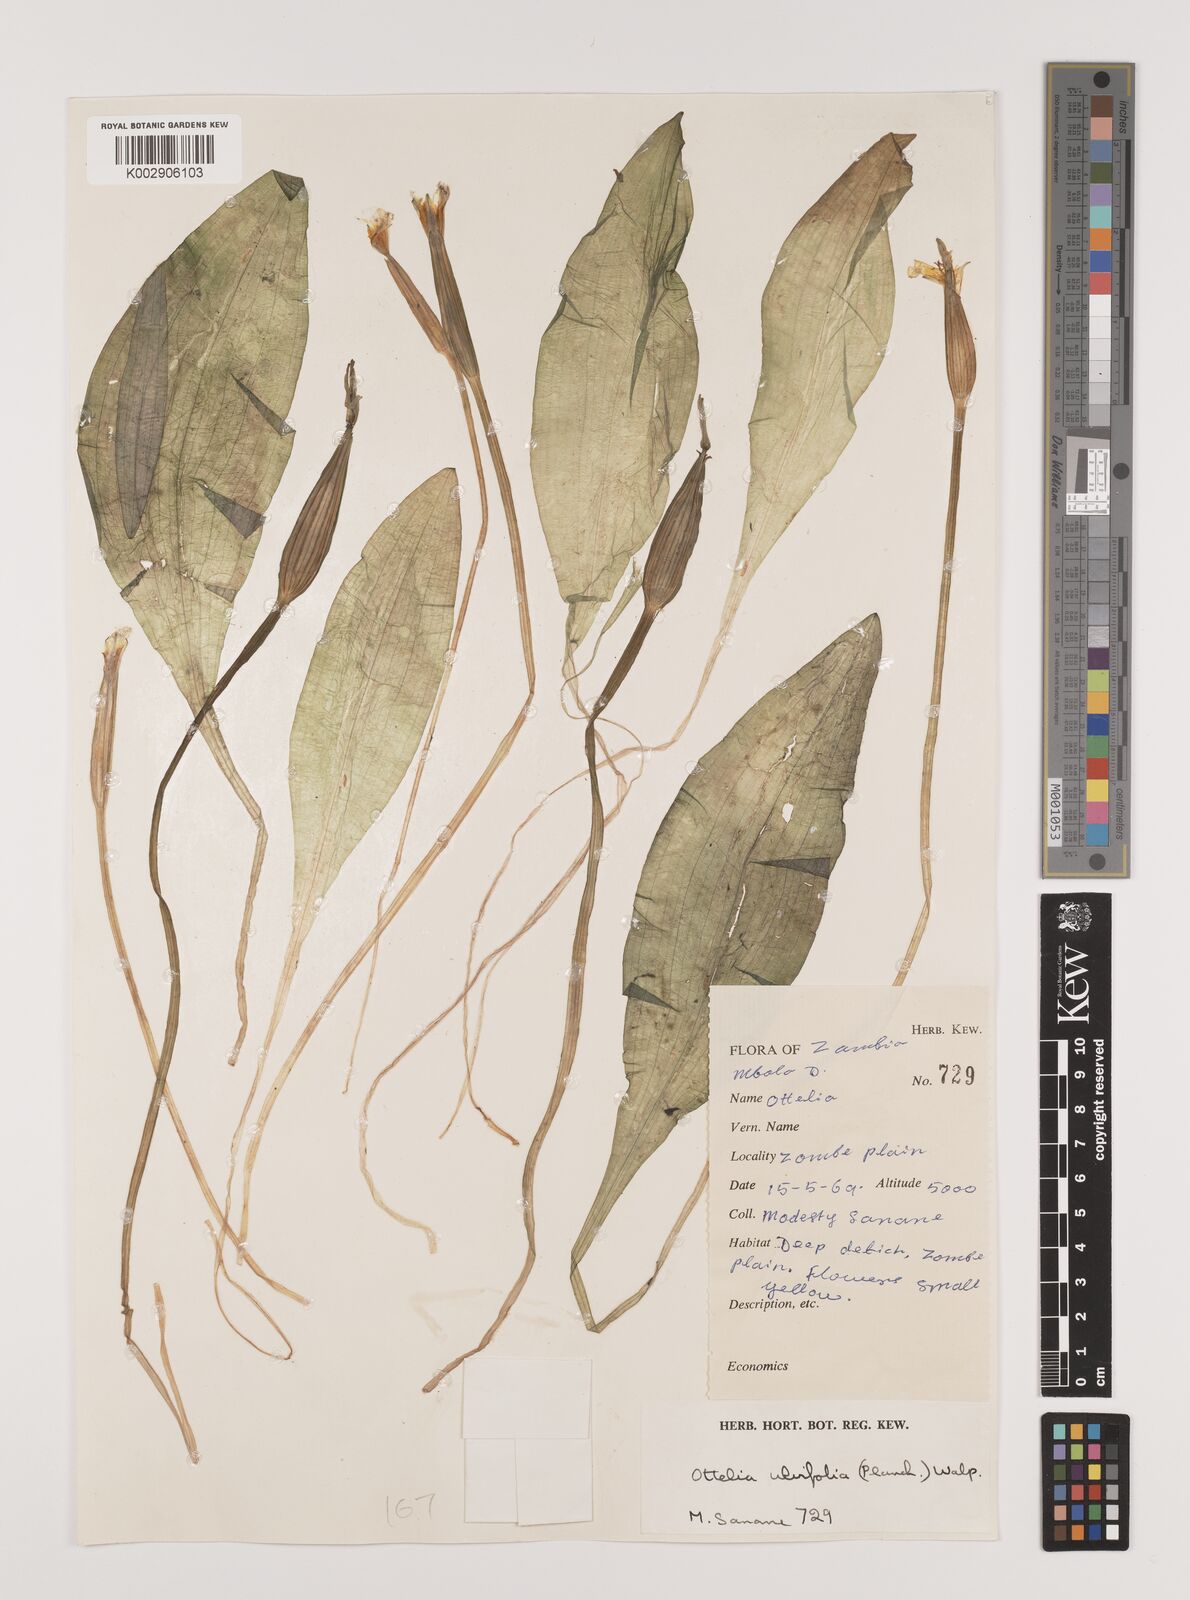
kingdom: Plantae
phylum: Tracheophyta
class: Liliopsida
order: Alismatales
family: Hydrocharitaceae
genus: Ottelia
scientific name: Ottelia ulvifolia
